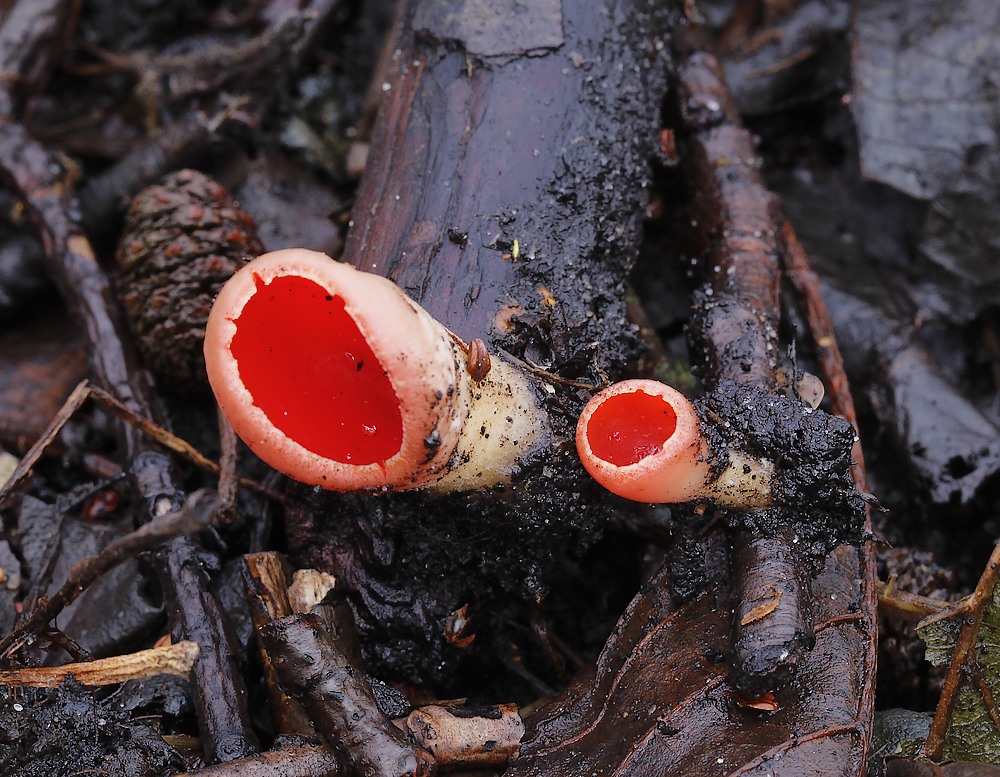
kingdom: Fungi
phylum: Ascomycota
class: Pezizomycetes
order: Pezizales
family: Sarcoscyphaceae
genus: Sarcoscypha
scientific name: Sarcoscypha austriaca
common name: krølhåret pragtbæger
